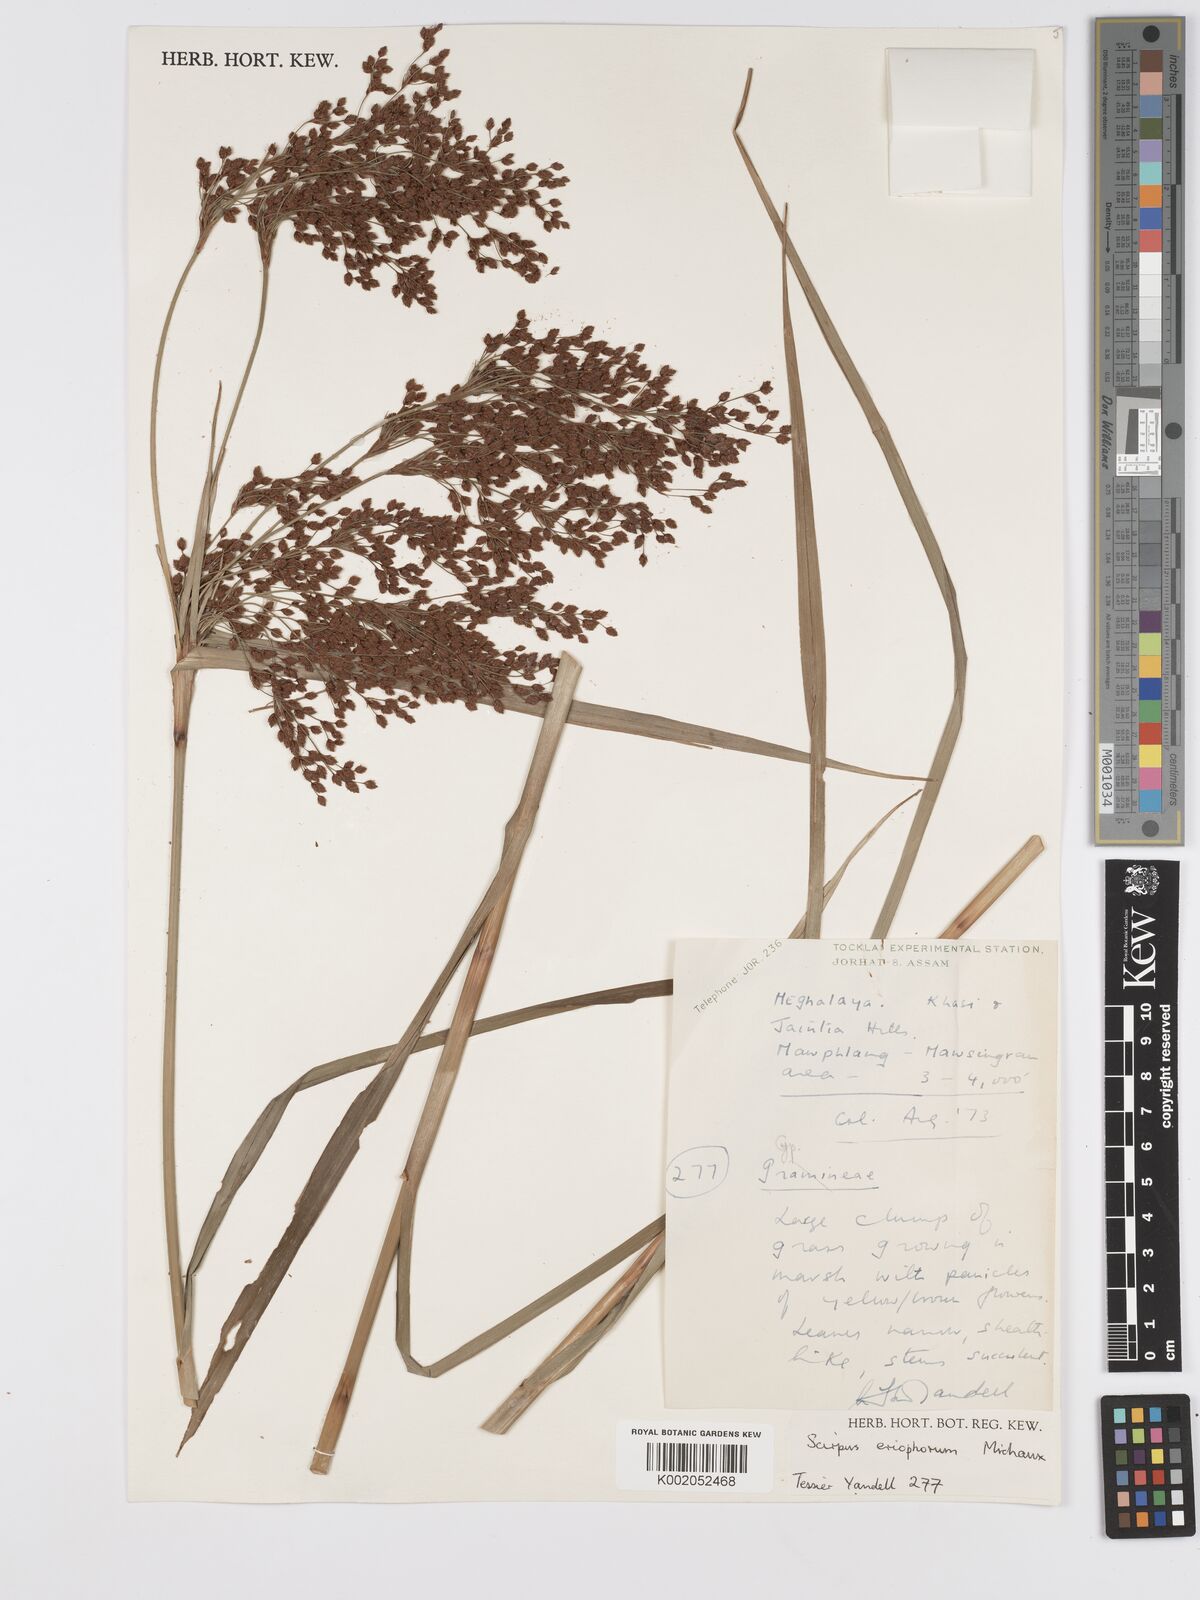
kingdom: Plantae
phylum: Tracheophyta
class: Liliopsida
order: Poales
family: Cyperaceae
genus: Scirpus
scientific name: Scirpus cyperinus
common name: Black-sheathed bulrush
